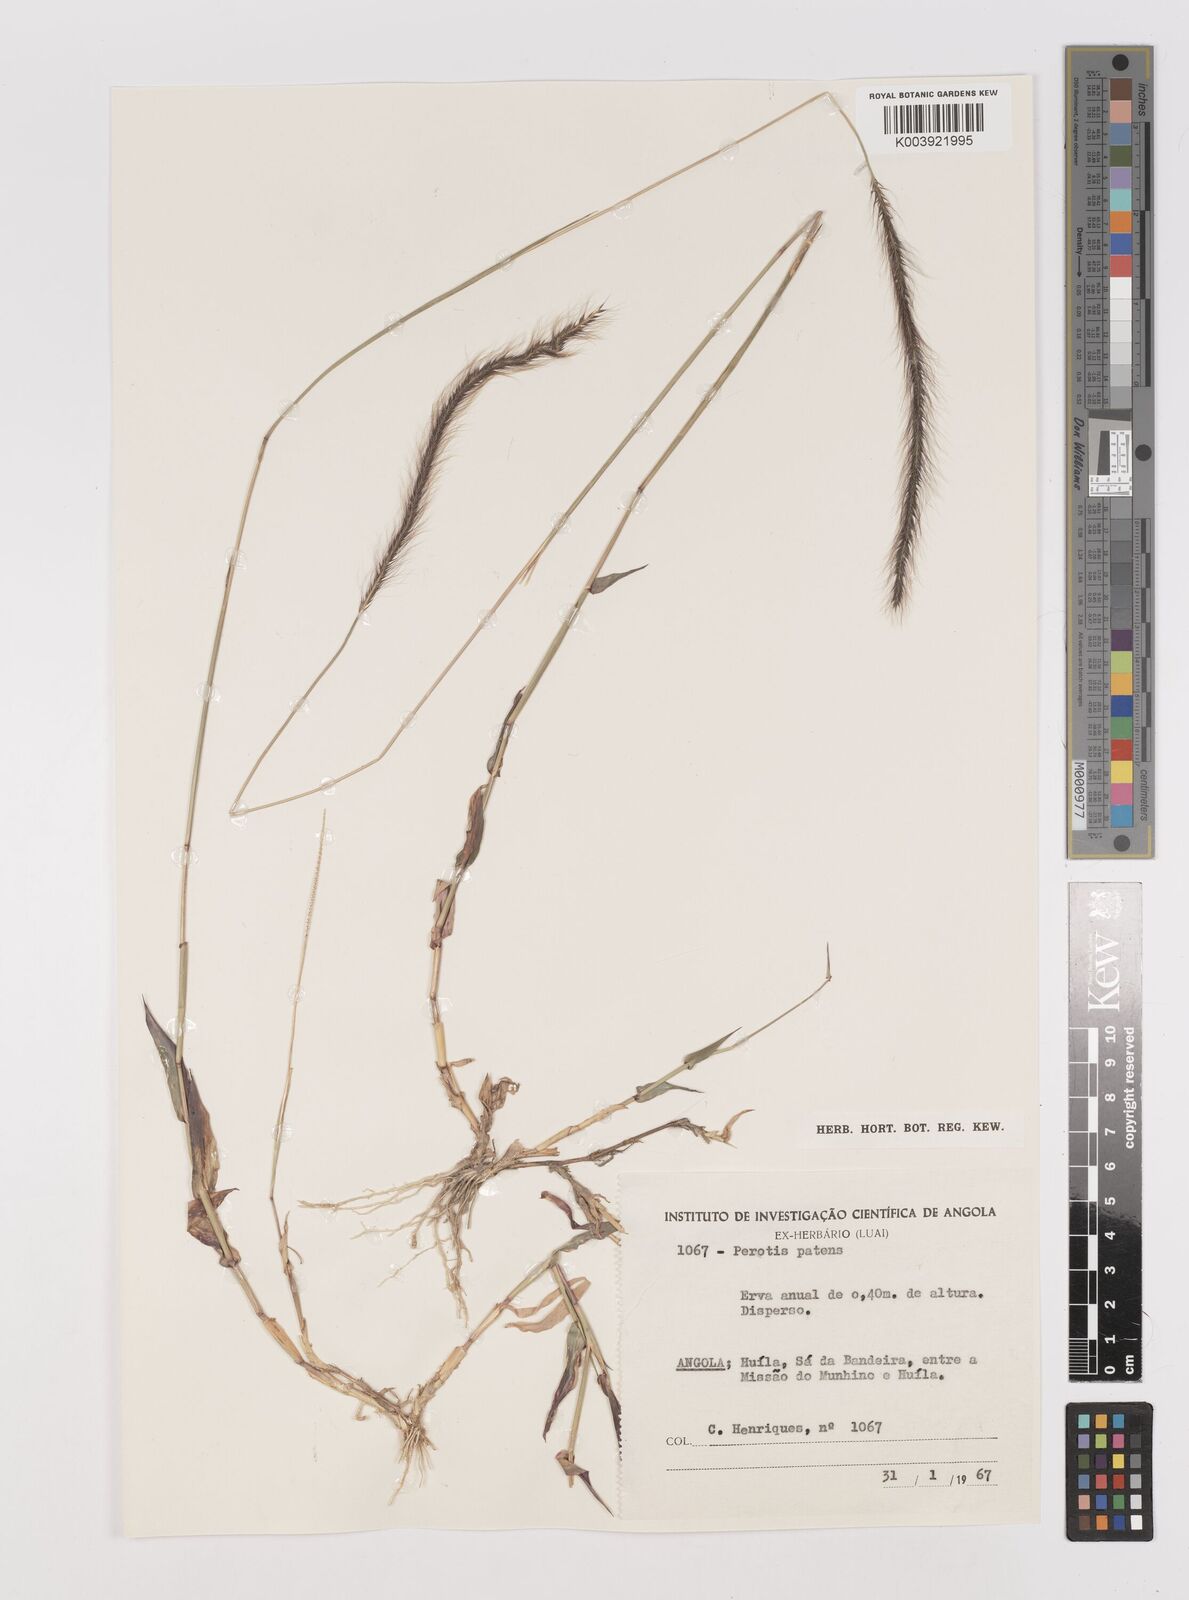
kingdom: Plantae
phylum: Tracheophyta
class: Liliopsida
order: Poales
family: Poaceae
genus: Perotis
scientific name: Perotis patens
